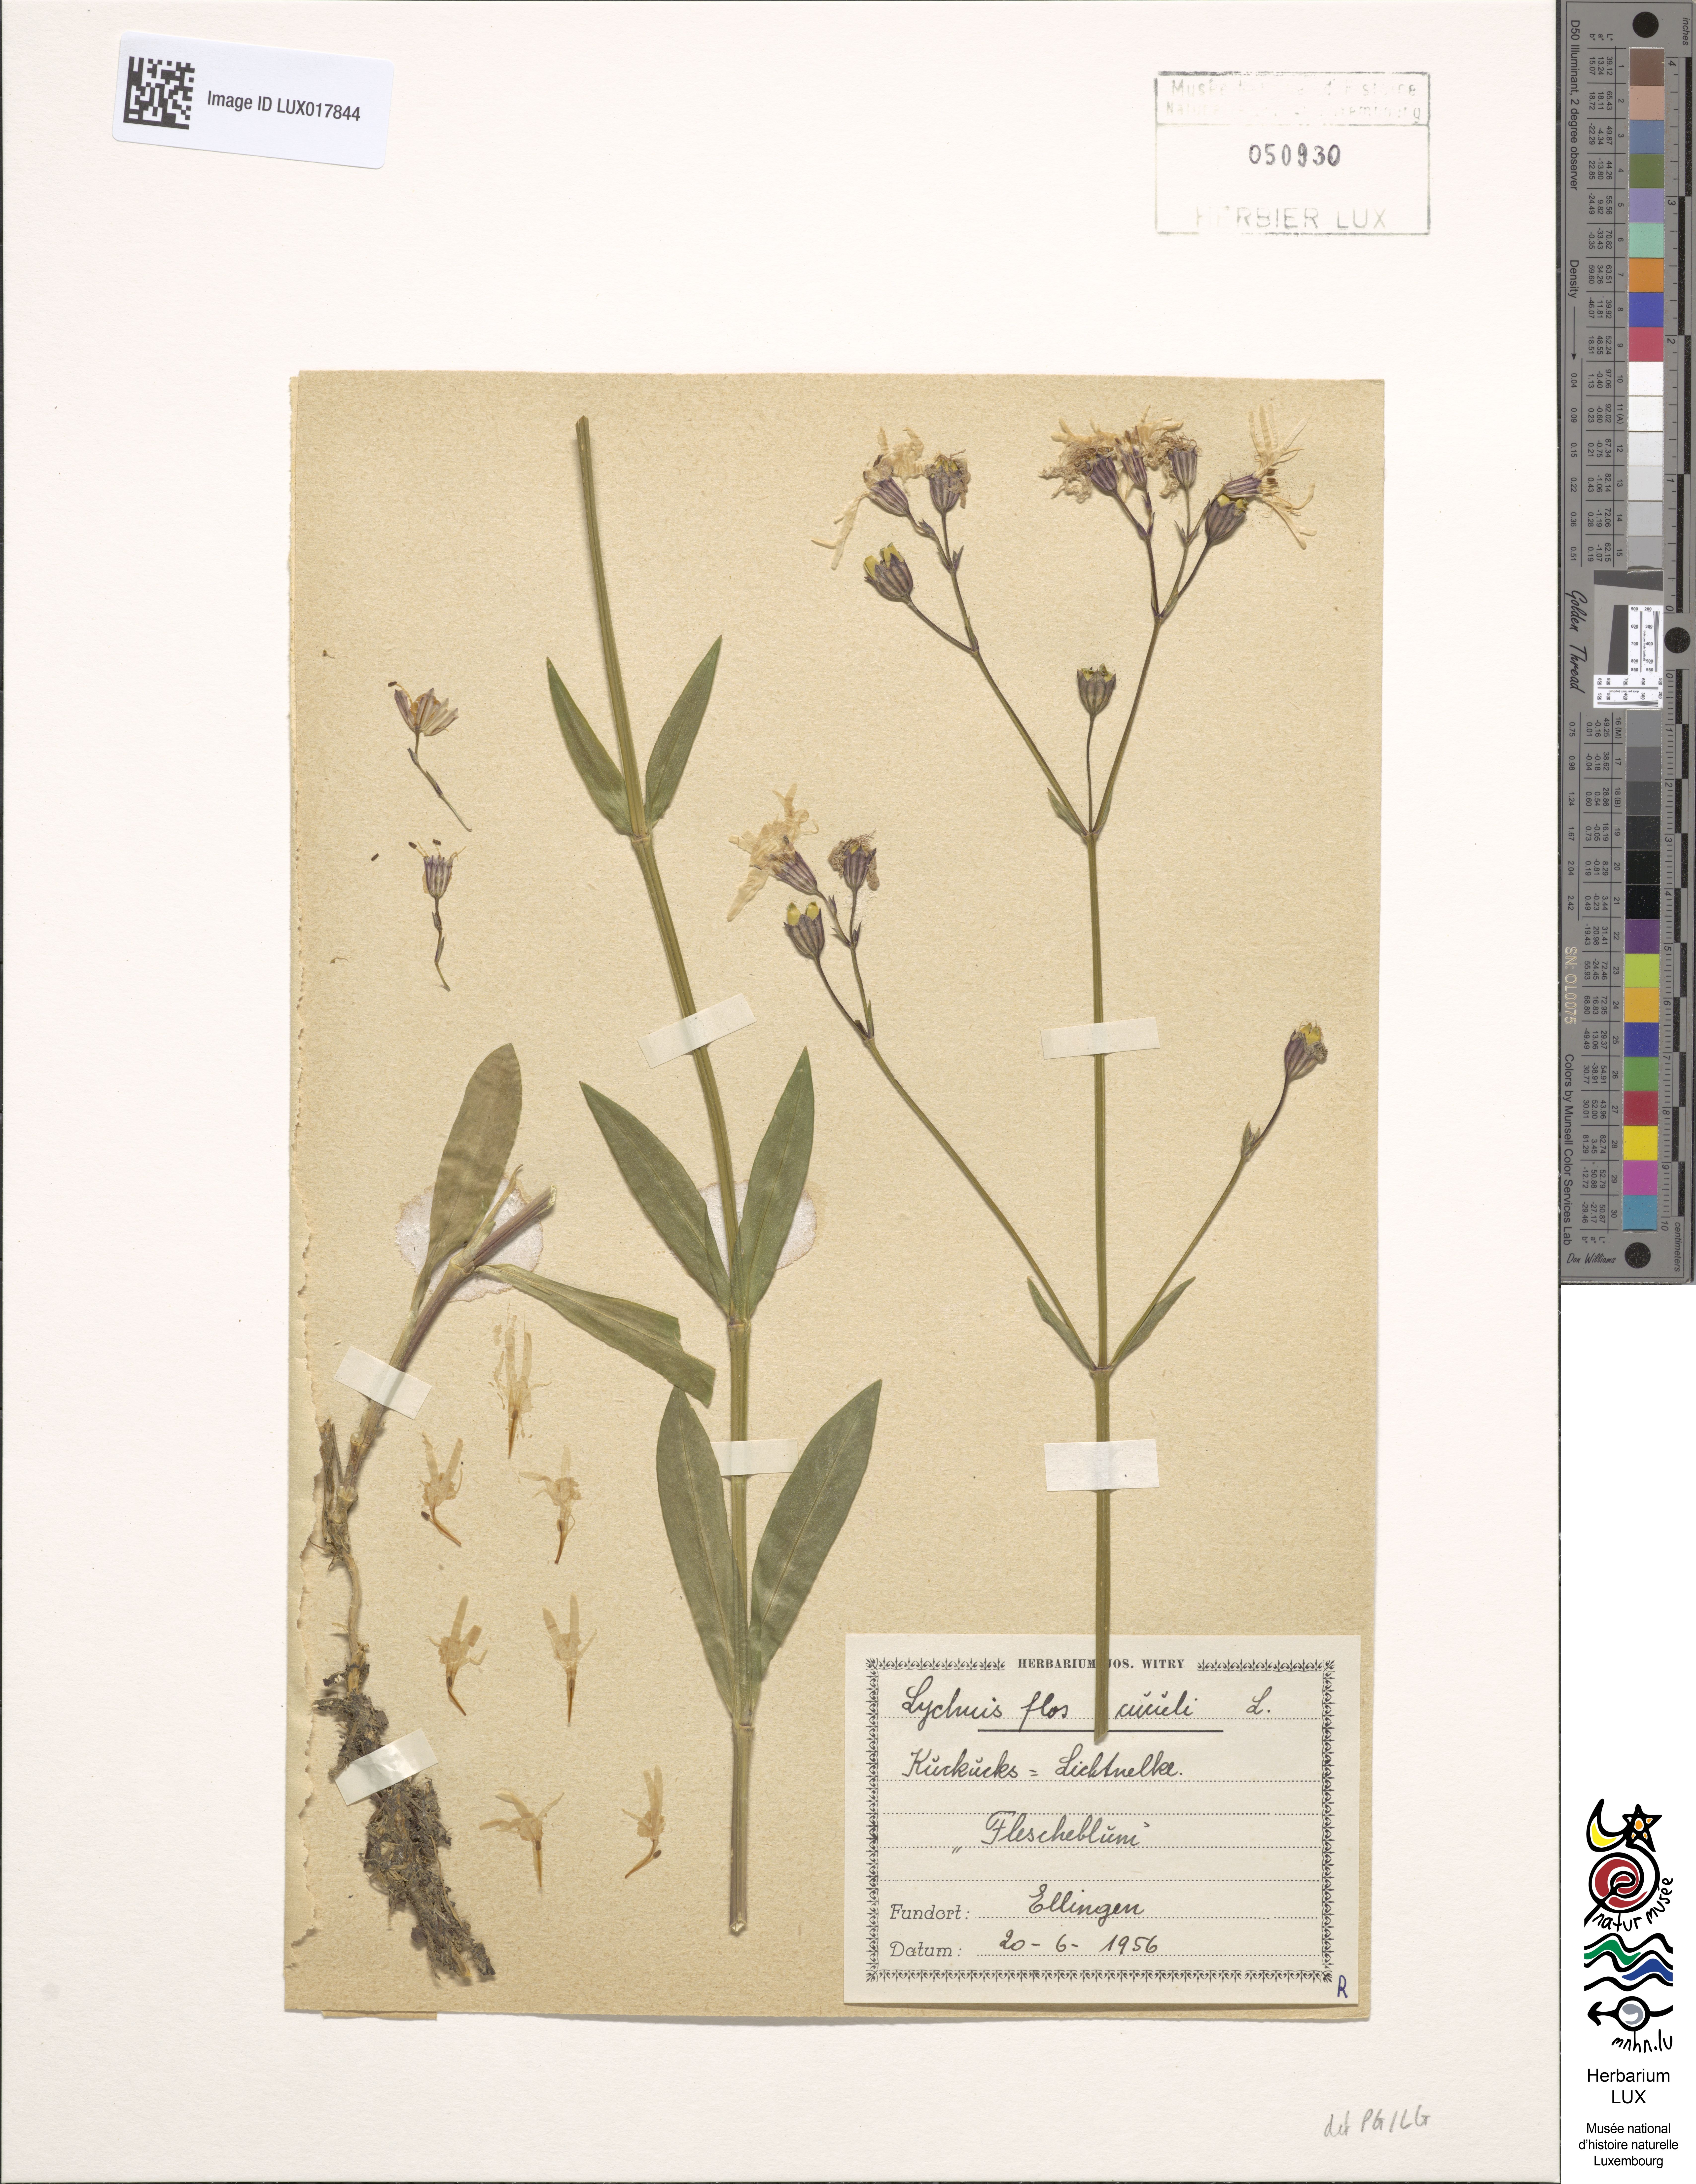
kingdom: Plantae
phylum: Tracheophyta
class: Magnoliopsida
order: Caryophyllales
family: Caryophyllaceae
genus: Silene
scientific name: Silene flos-cuculi
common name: Ragged-robin
